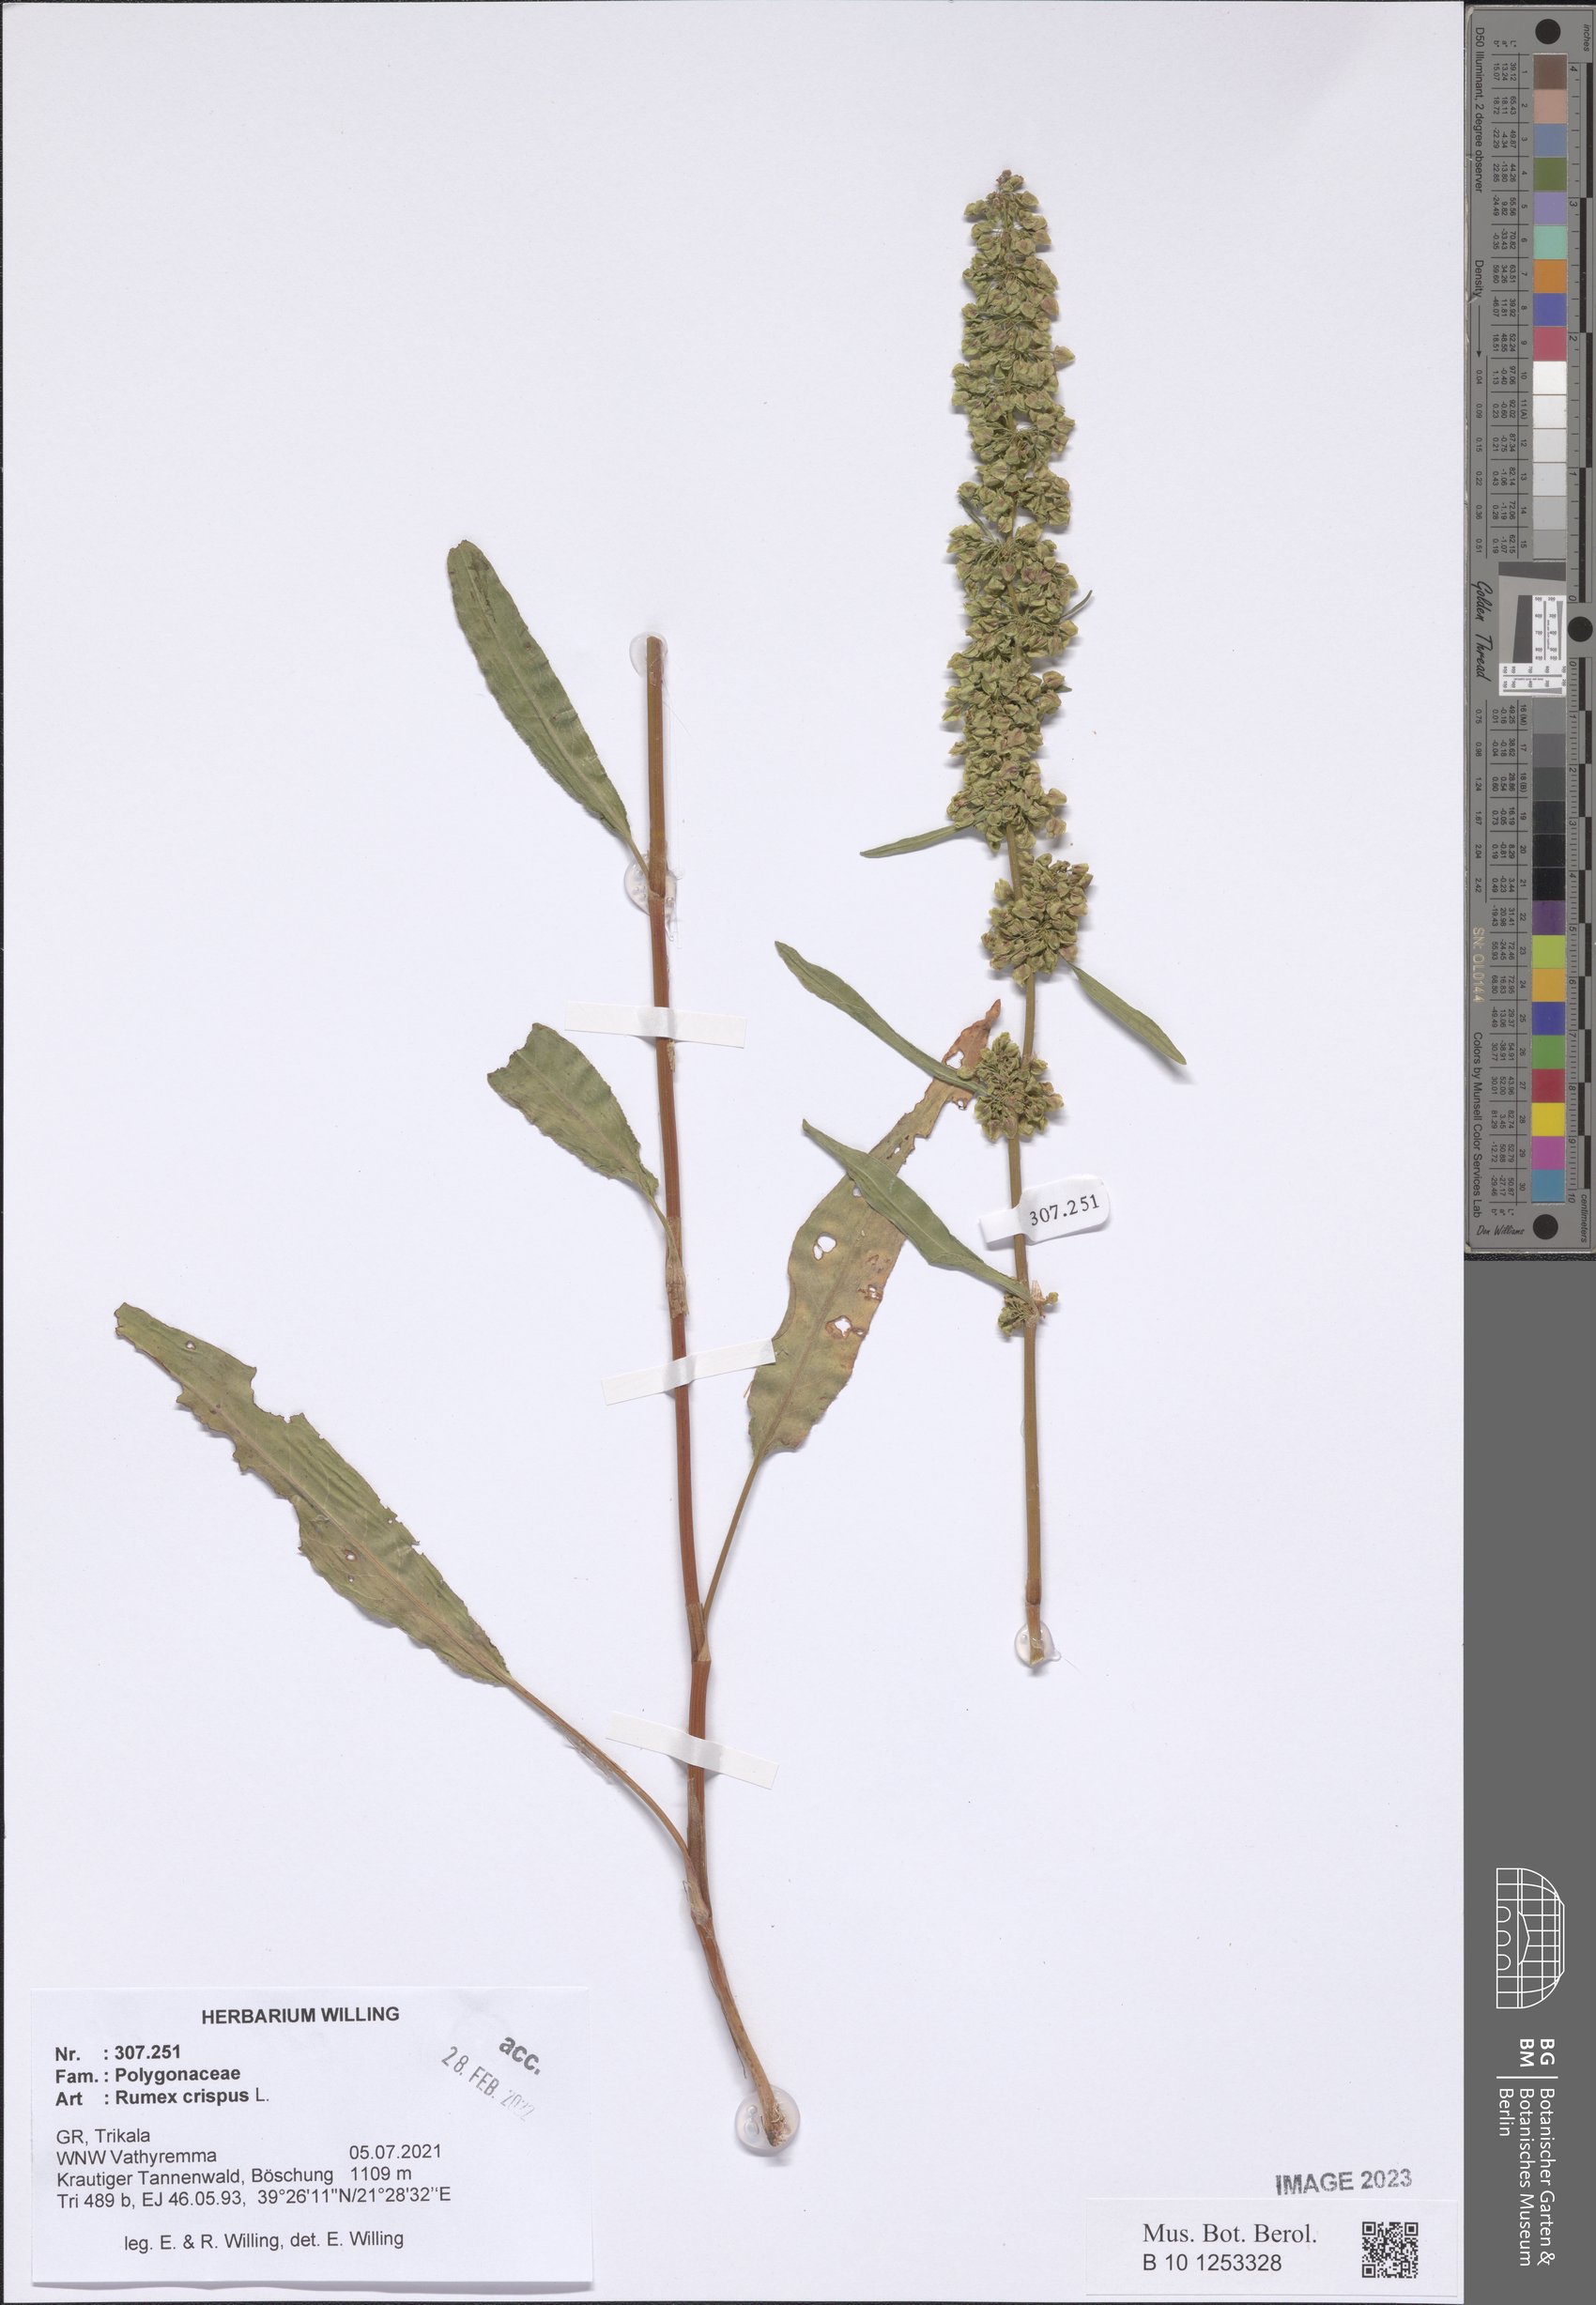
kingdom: Plantae
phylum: Tracheophyta
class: Magnoliopsida
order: Caryophyllales
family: Polygonaceae
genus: Rumex
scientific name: Rumex crispus
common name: Curled dock
